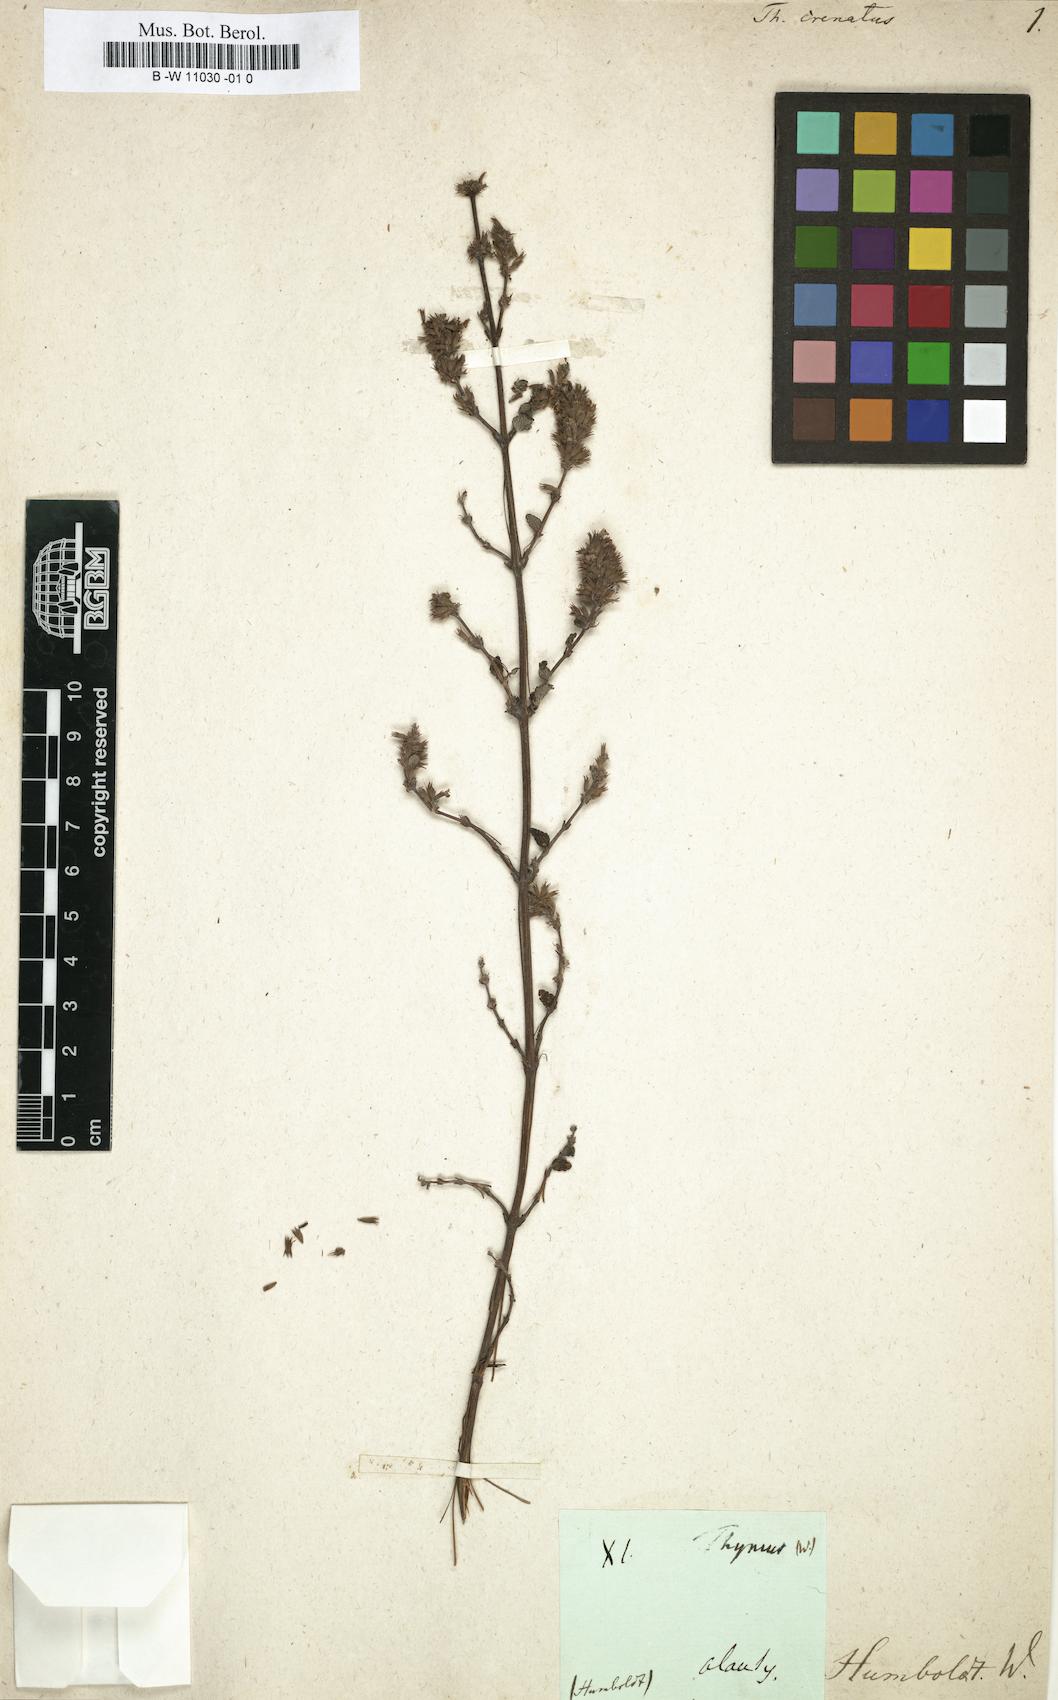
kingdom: Plantae
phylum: Tracheophyta
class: Magnoliopsida
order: Lamiales
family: Lamiaceae
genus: Clinopodium
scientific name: Clinopodium breviflorum
